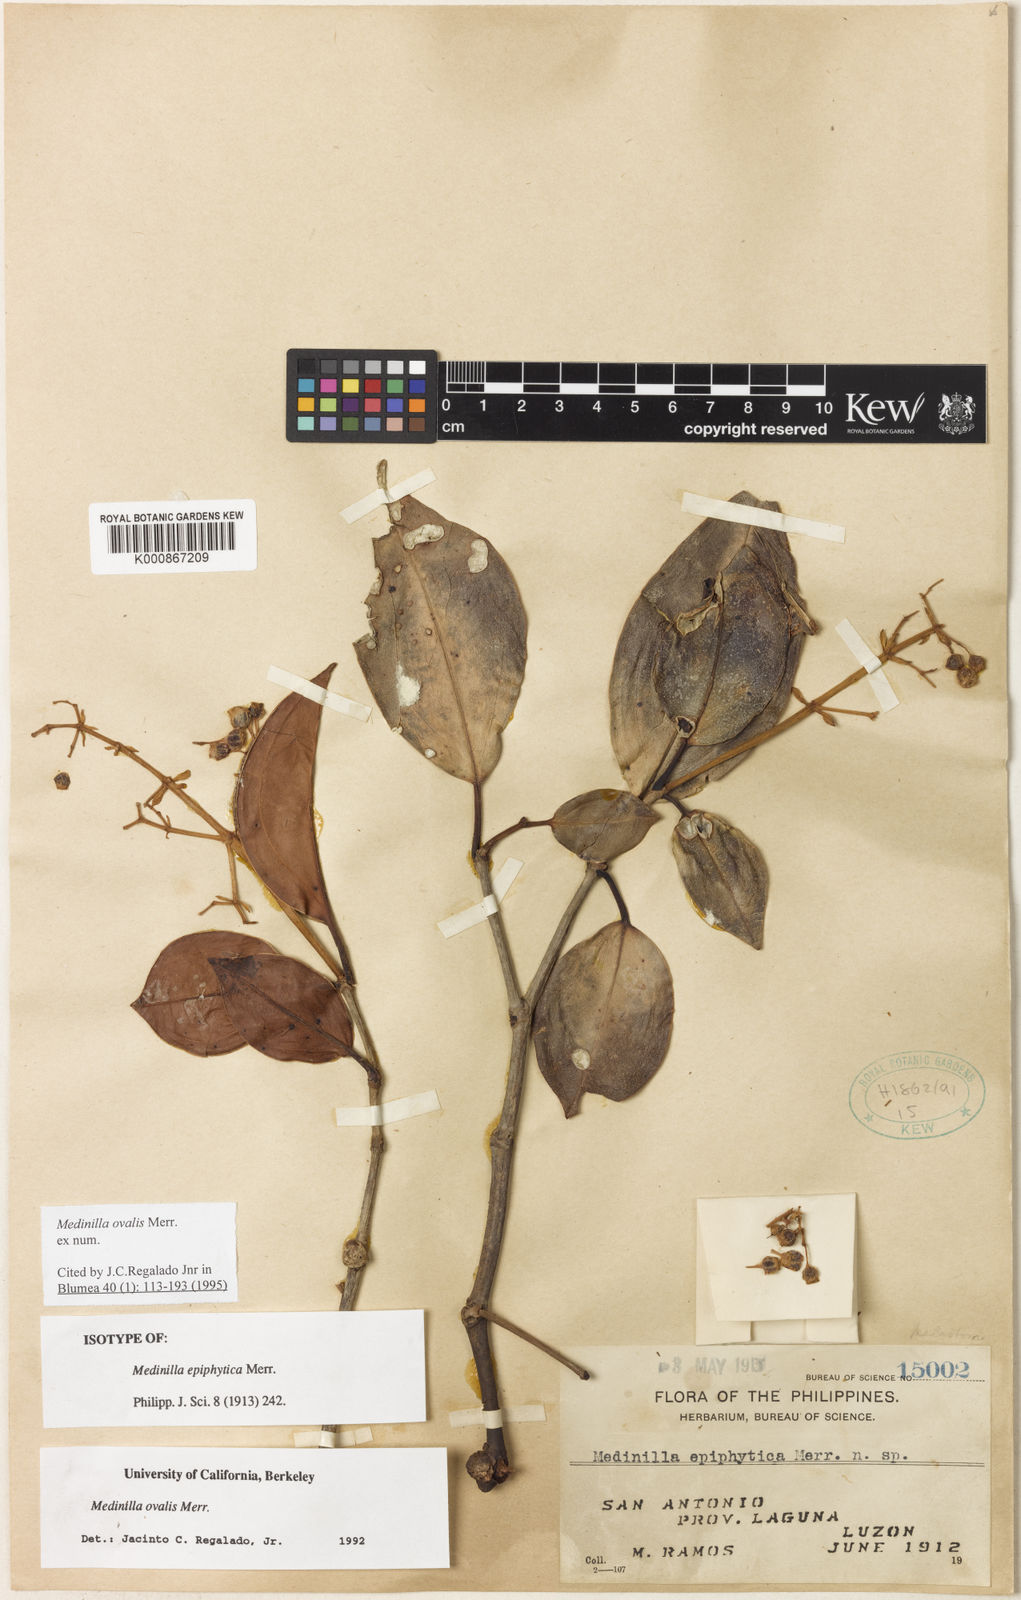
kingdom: Plantae
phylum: Tracheophyta
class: Magnoliopsida
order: Myrtales
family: Melastomataceae
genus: Medinilla
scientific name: Medinilla ovalis
